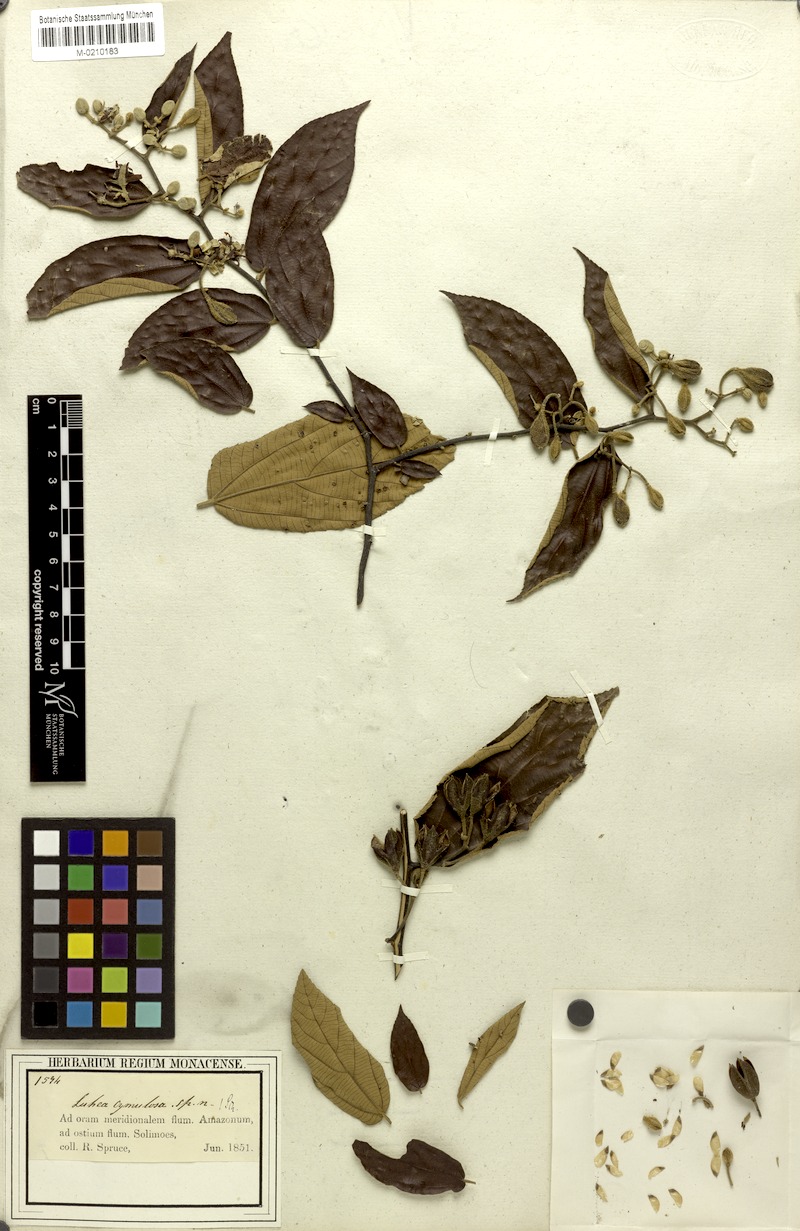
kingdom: Plantae
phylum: Tracheophyta
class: Magnoliopsida
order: Malvales
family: Malvaceae
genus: Luehea
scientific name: Luehea cymulosa
